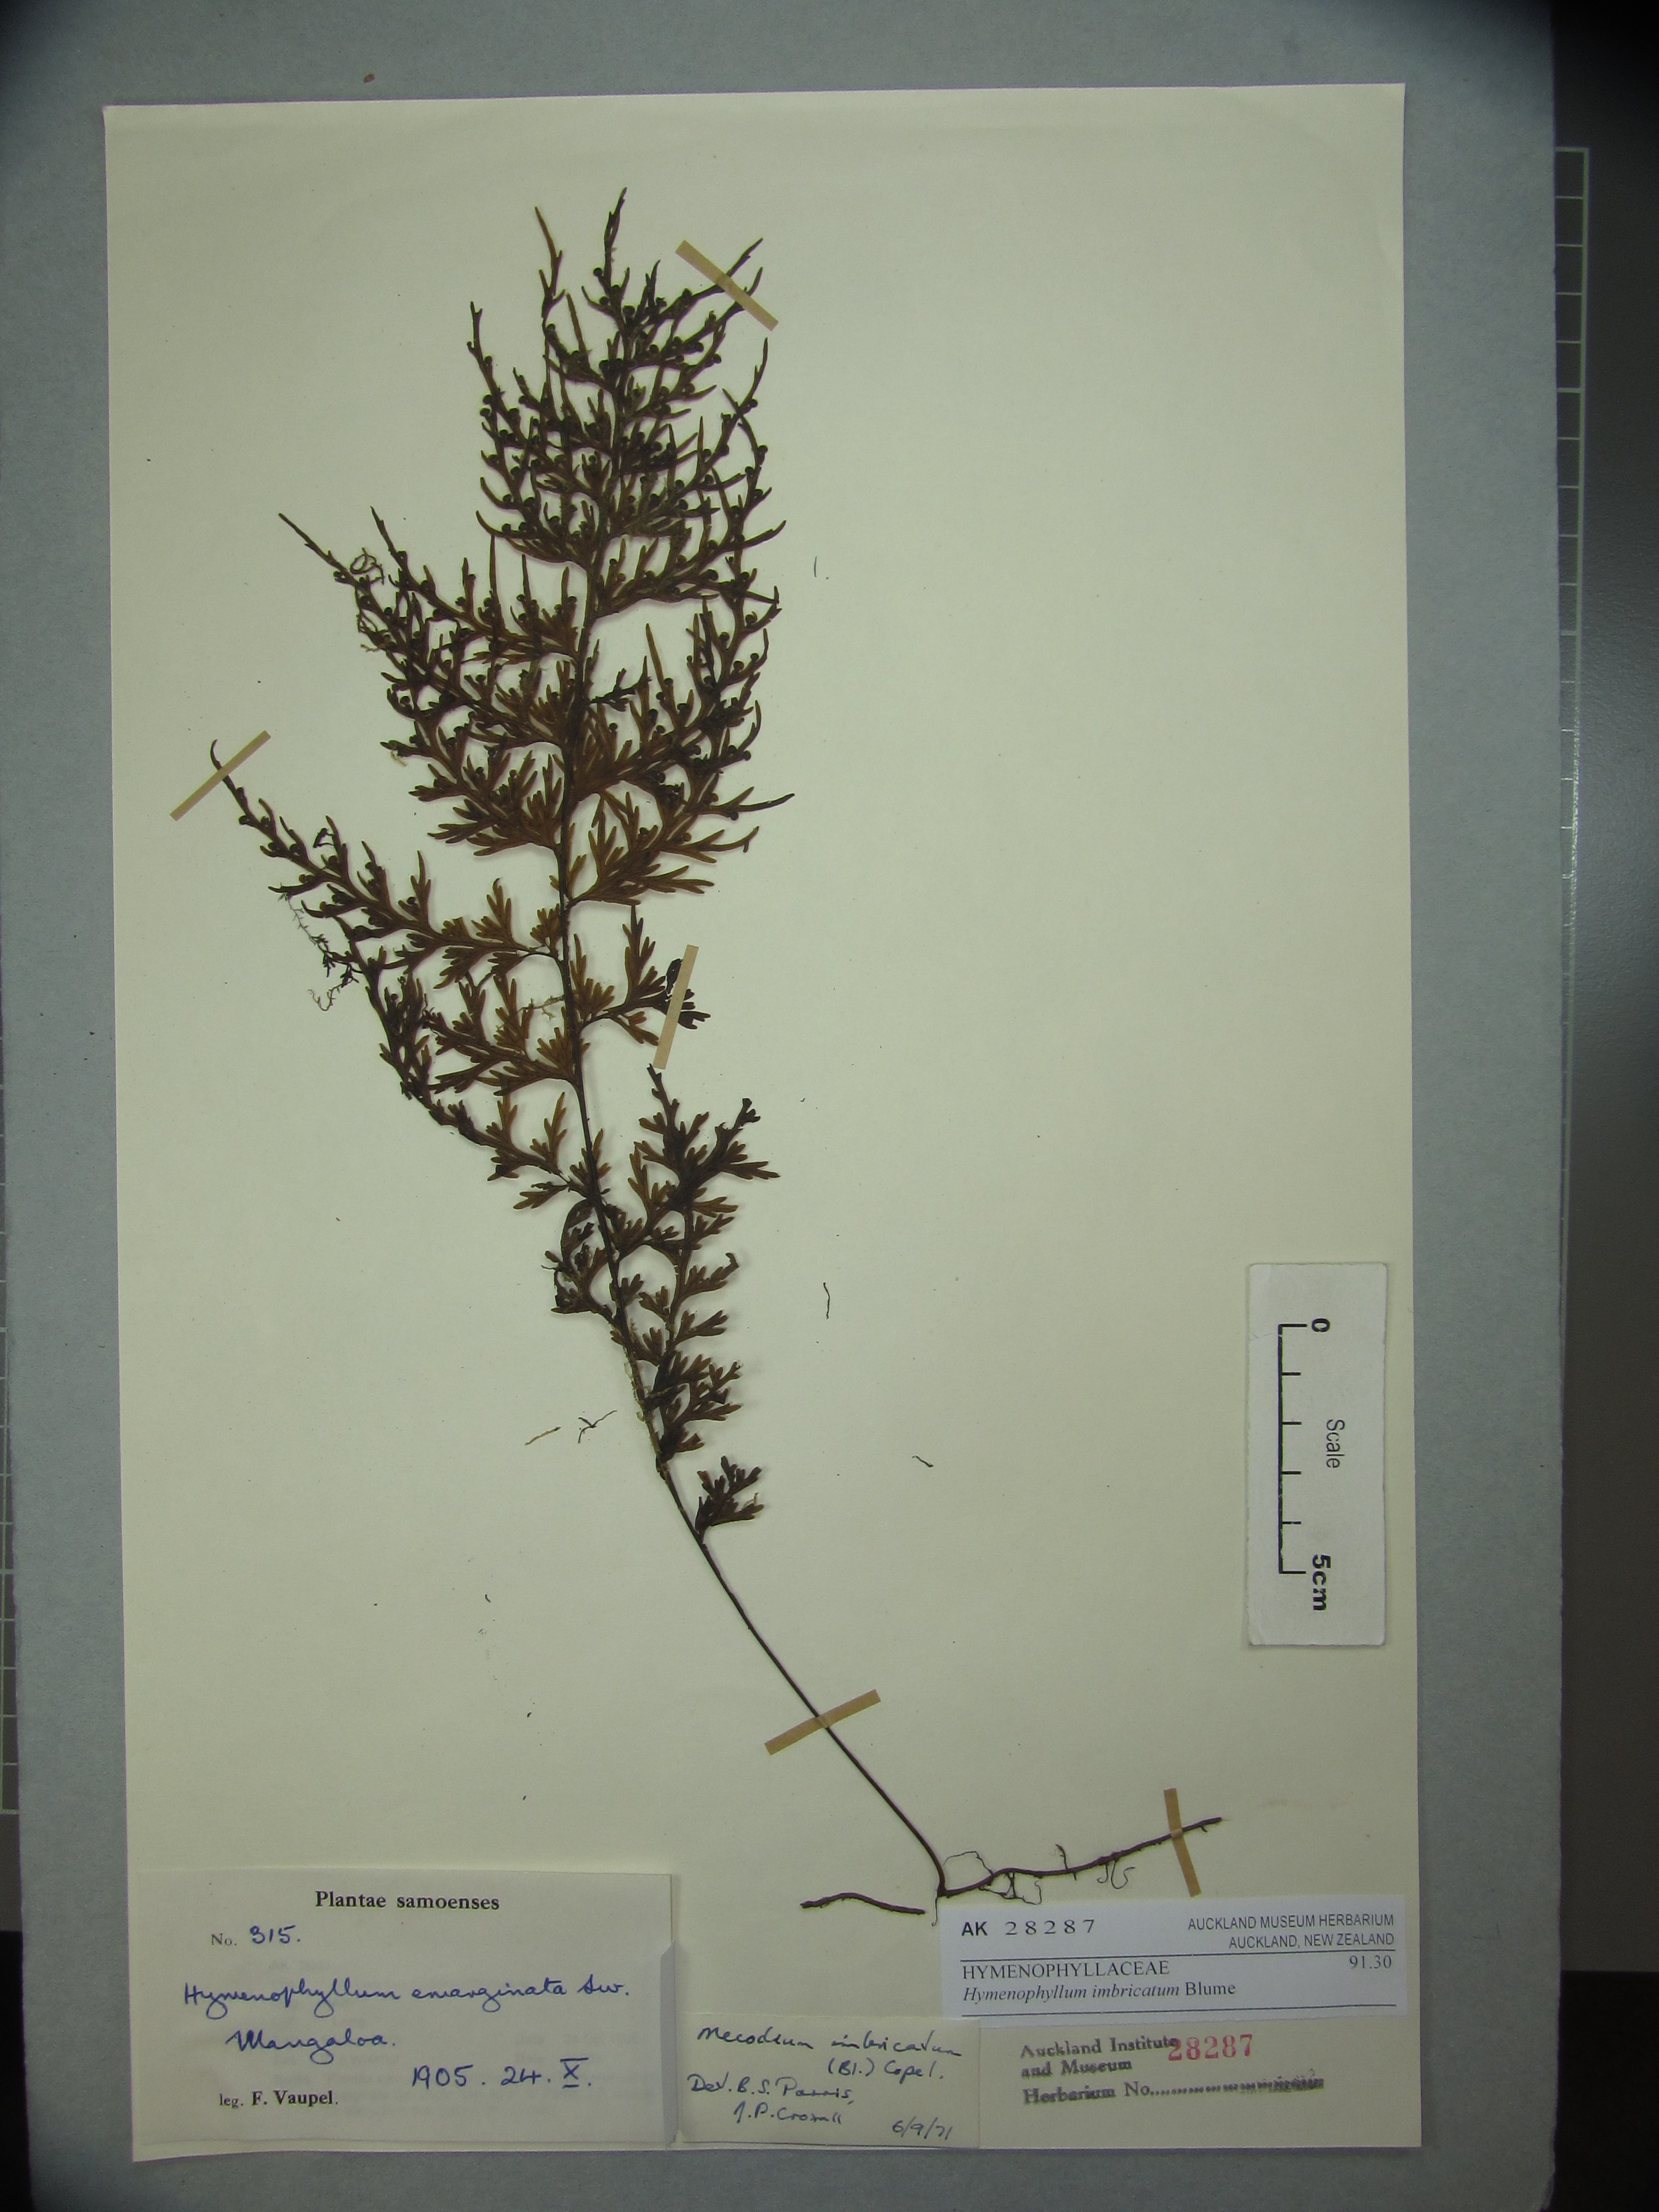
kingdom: Plantae
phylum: Tracheophyta
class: Polypodiopsida
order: Hymenophyllales
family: Hymenophyllaceae
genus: Hymenophyllum
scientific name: Hymenophyllum imbricatum
